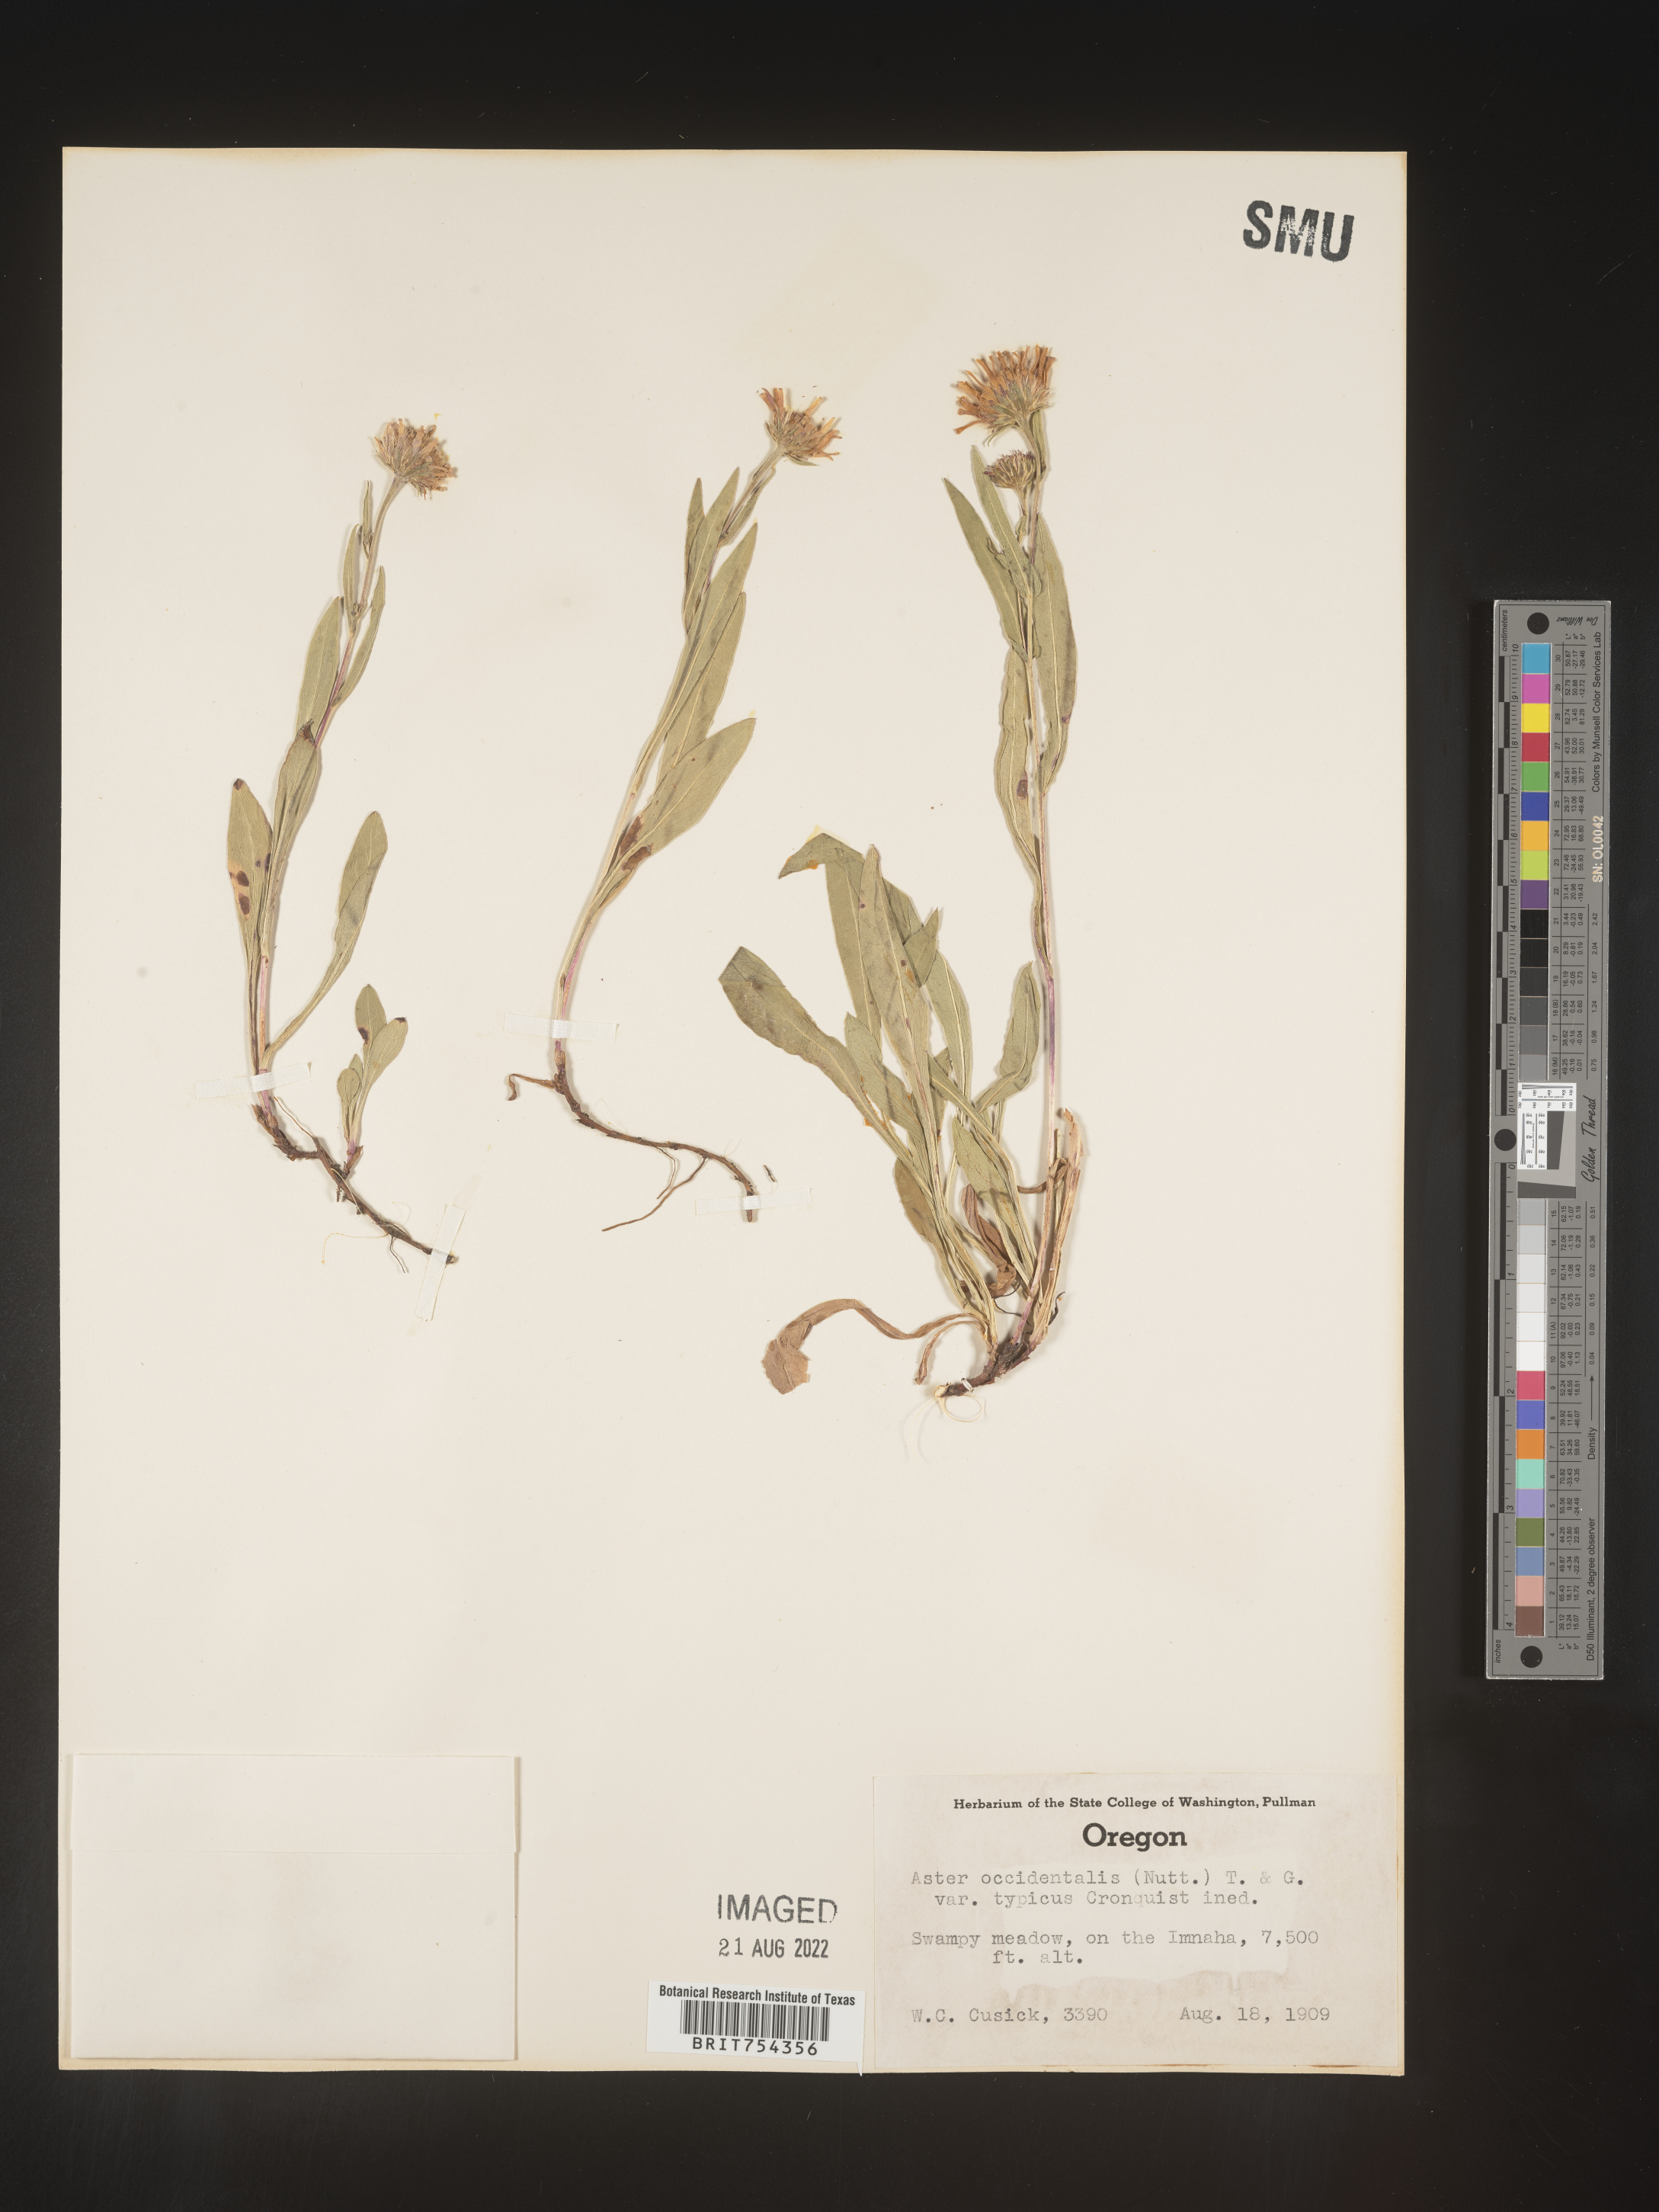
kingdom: Plantae
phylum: Tracheophyta
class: Magnoliopsida
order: Asterales
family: Asteraceae
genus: Symphyotrichum
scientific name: Symphyotrichum spathulatum
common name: Western mountain aster
